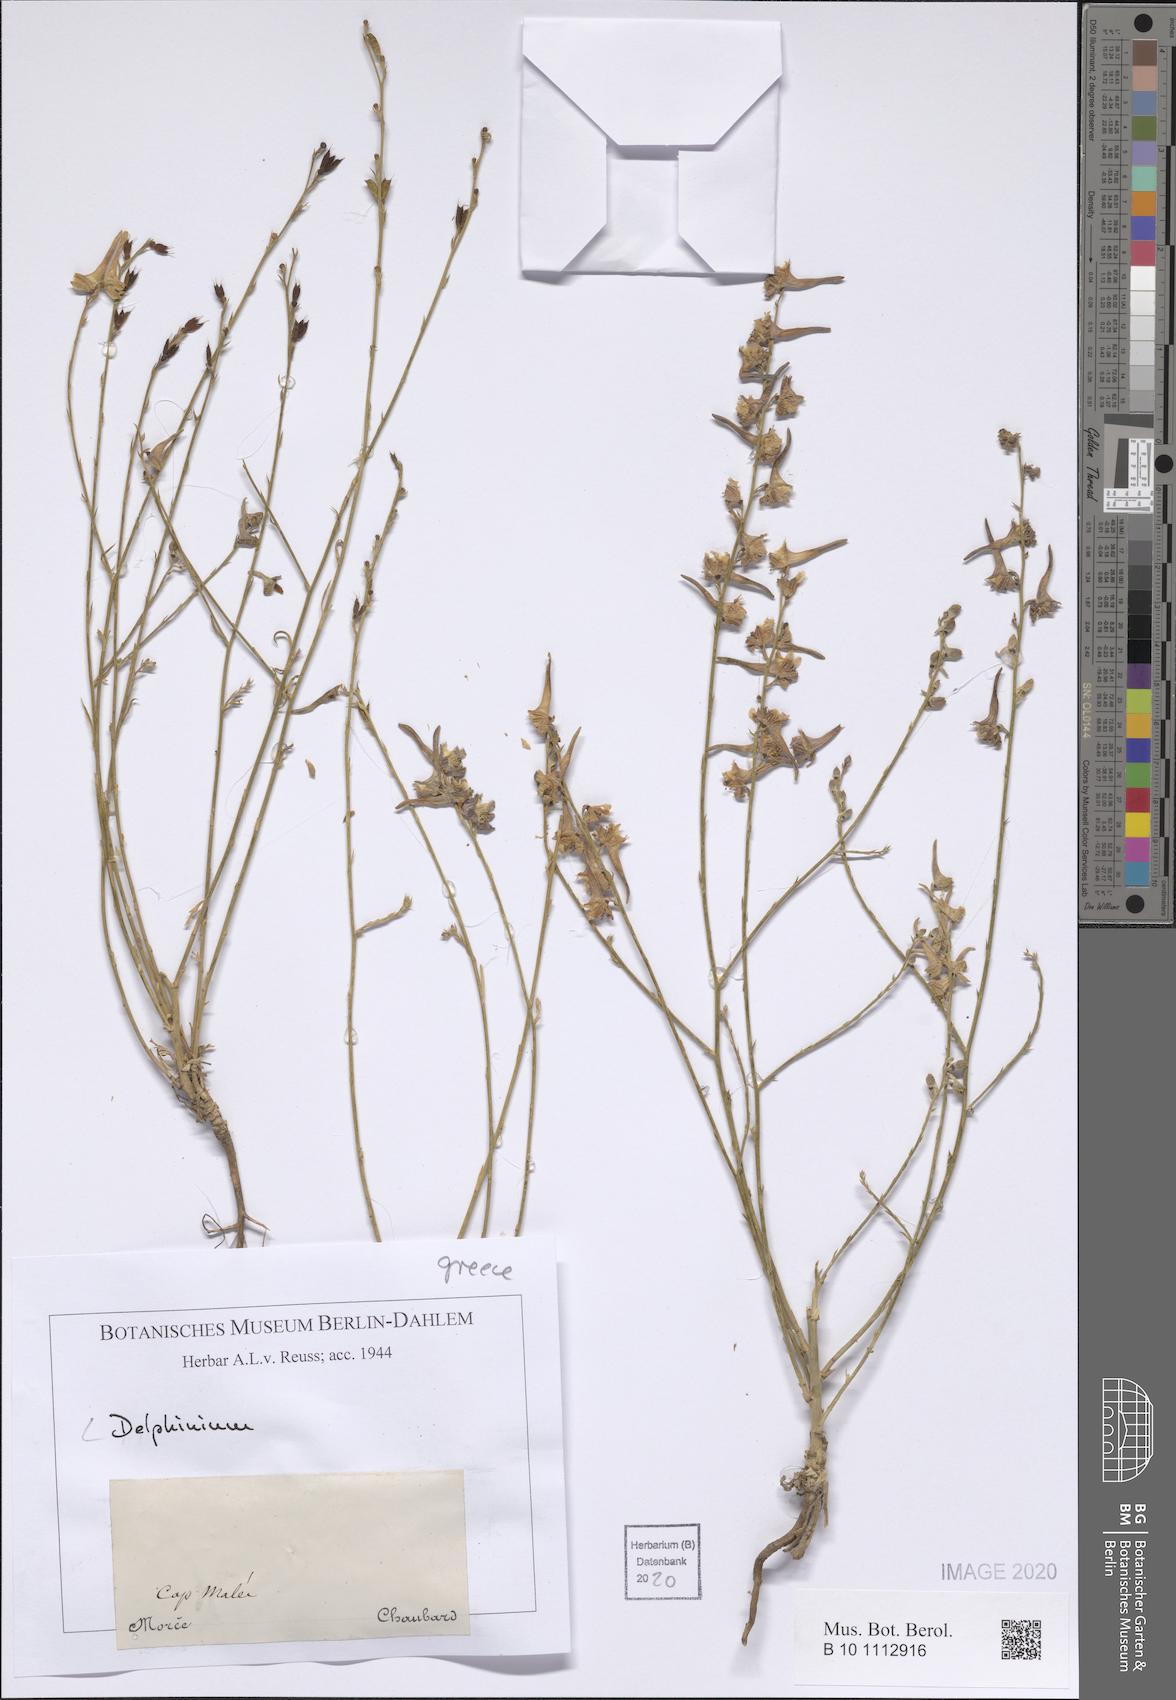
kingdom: Plantae
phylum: Tracheophyta
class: Magnoliopsida
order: Ranunculales
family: Ranunculaceae
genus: Delphinium
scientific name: Delphinium
